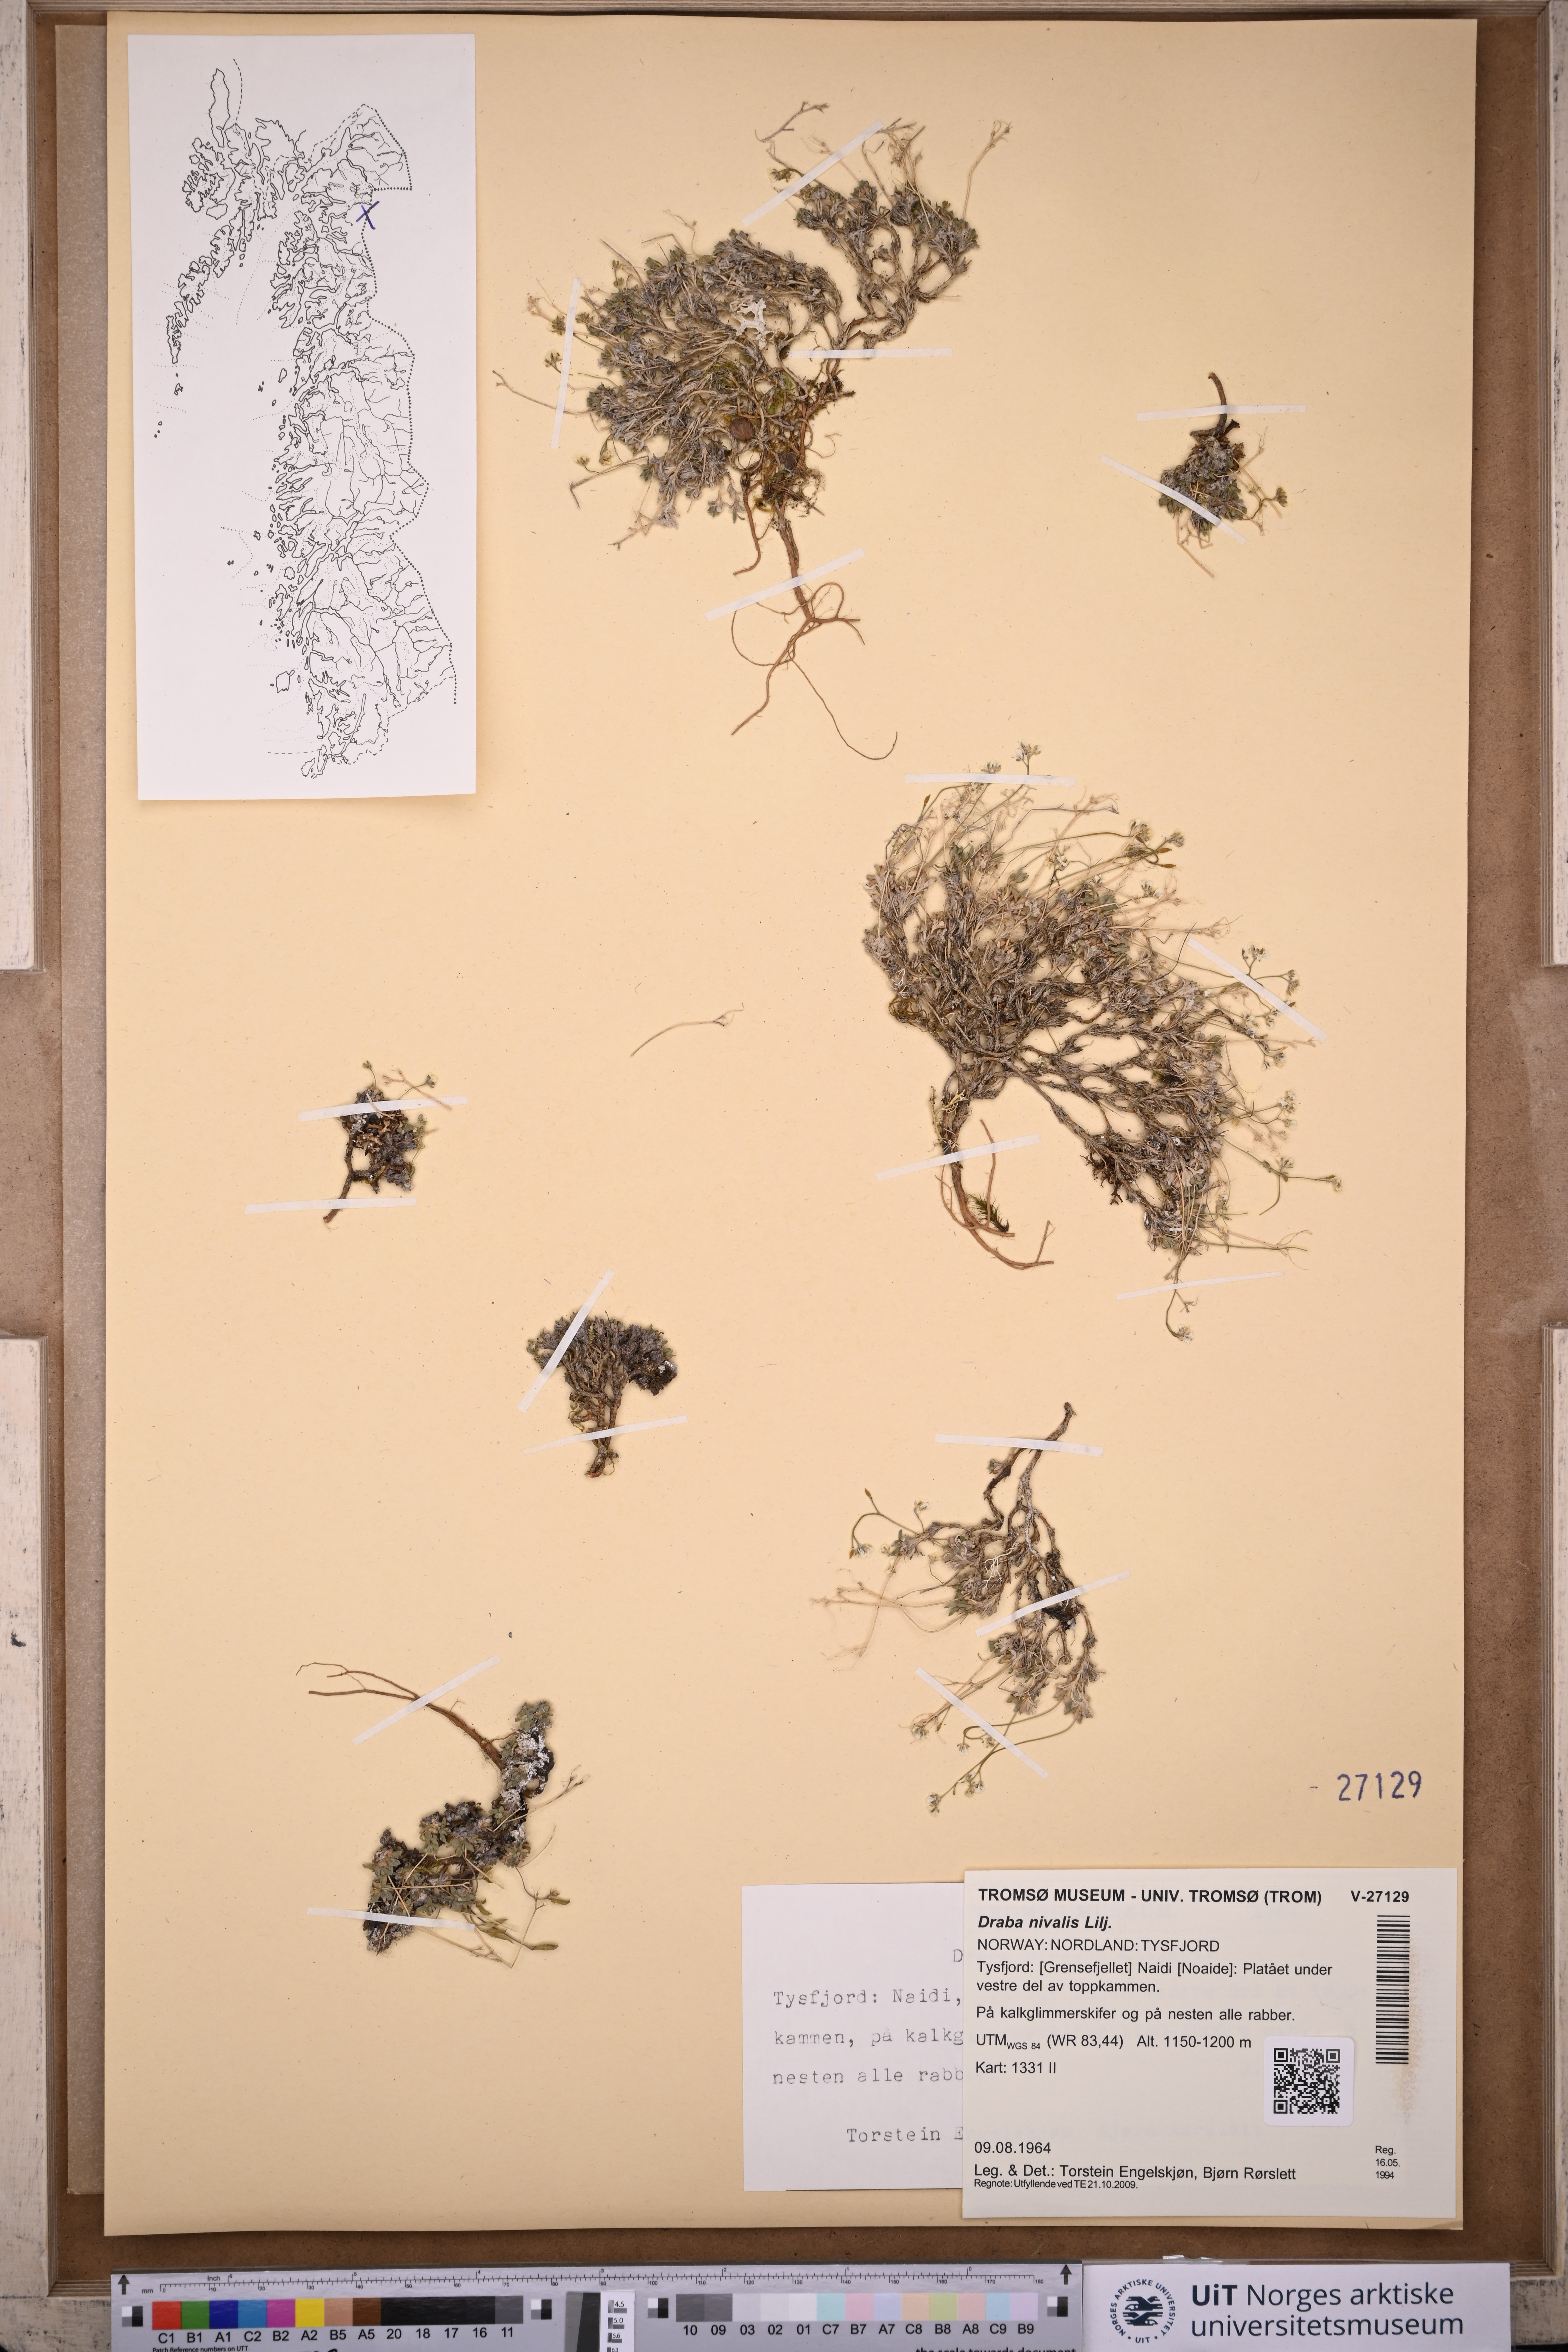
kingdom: Plantae
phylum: Tracheophyta
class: Magnoliopsida
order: Brassicales
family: Brassicaceae
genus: Draba
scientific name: Draba nivalis
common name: Snow draba
